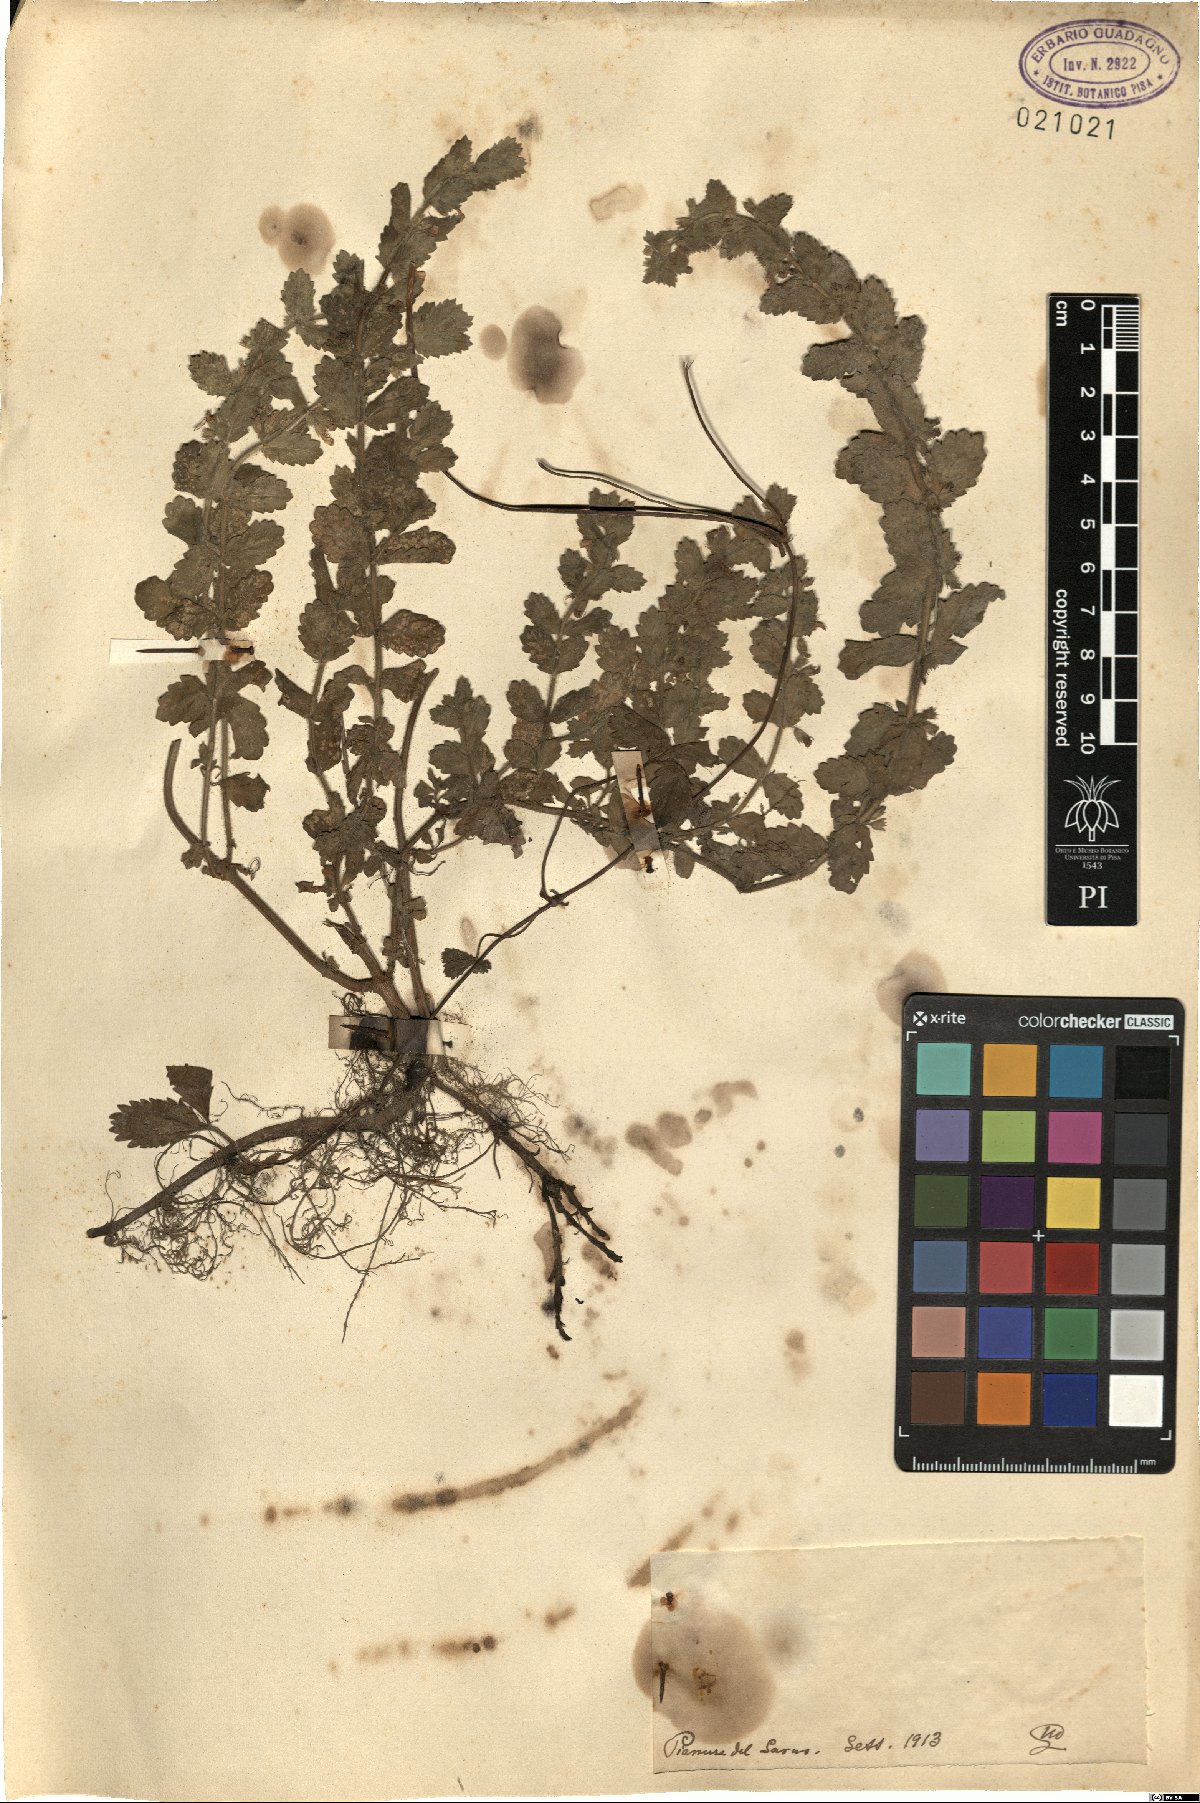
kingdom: Plantae
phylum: Tracheophyta
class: Magnoliopsida
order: Lamiales
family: Lamiaceae
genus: Teucrium
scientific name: Teucrium
